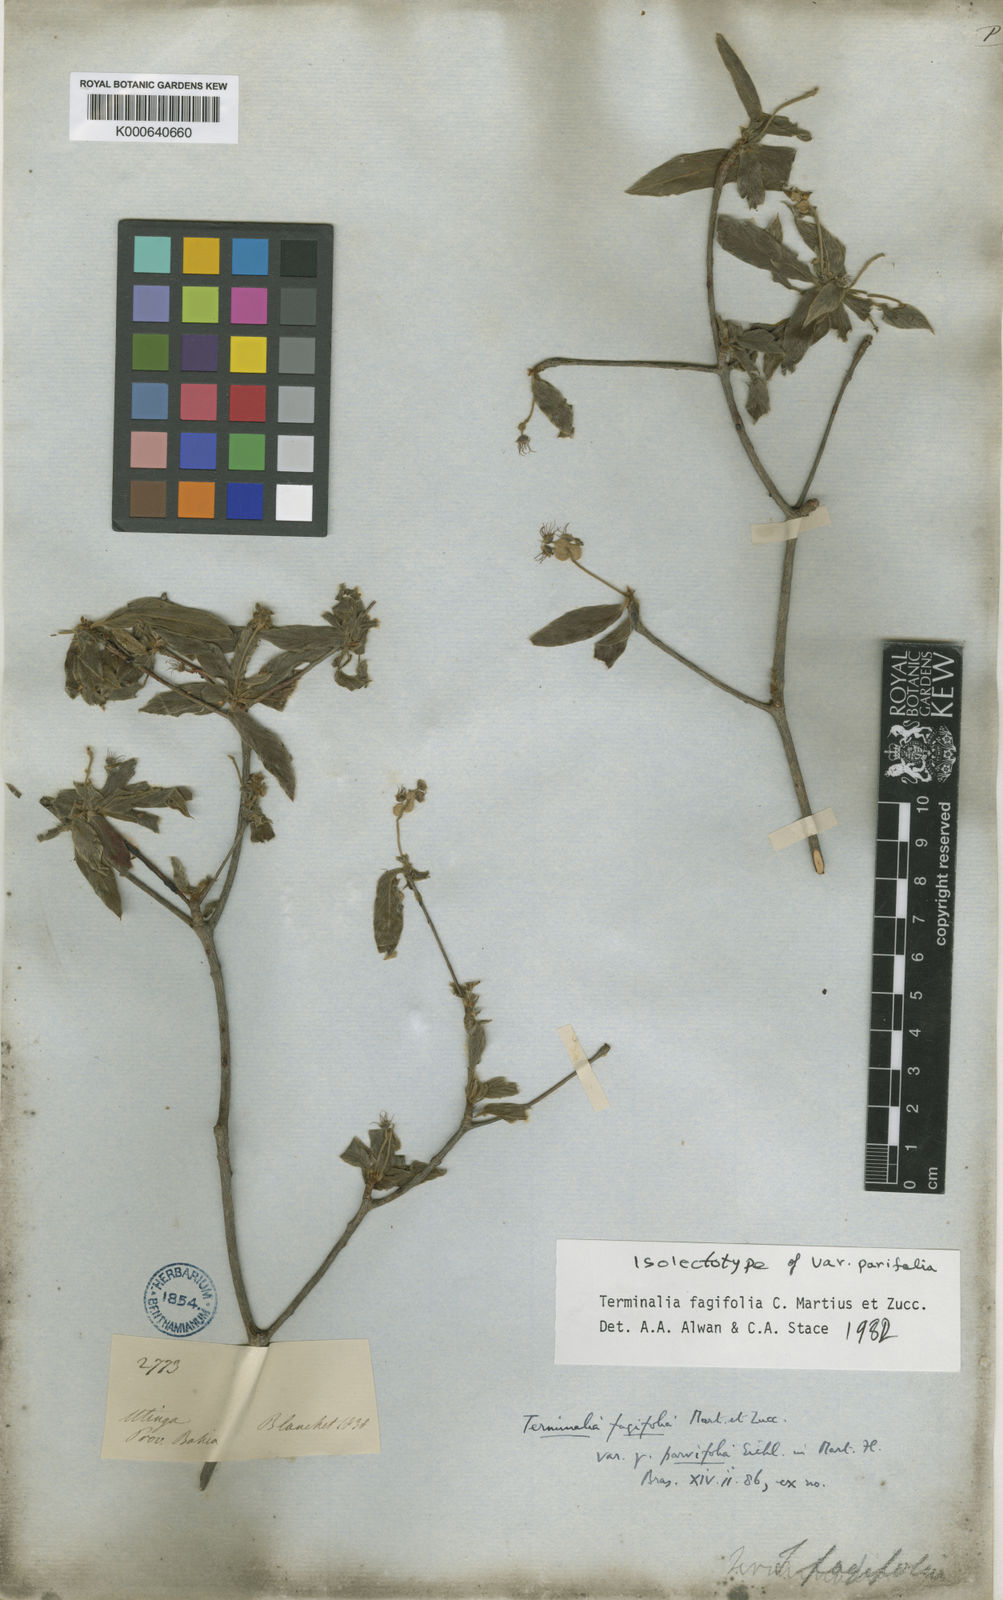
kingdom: Plantae
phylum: Tracheophyta
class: Magnoliopsida
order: Myrtales
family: Combretaceae
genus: Terminalia
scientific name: Terminalia fagifolia
